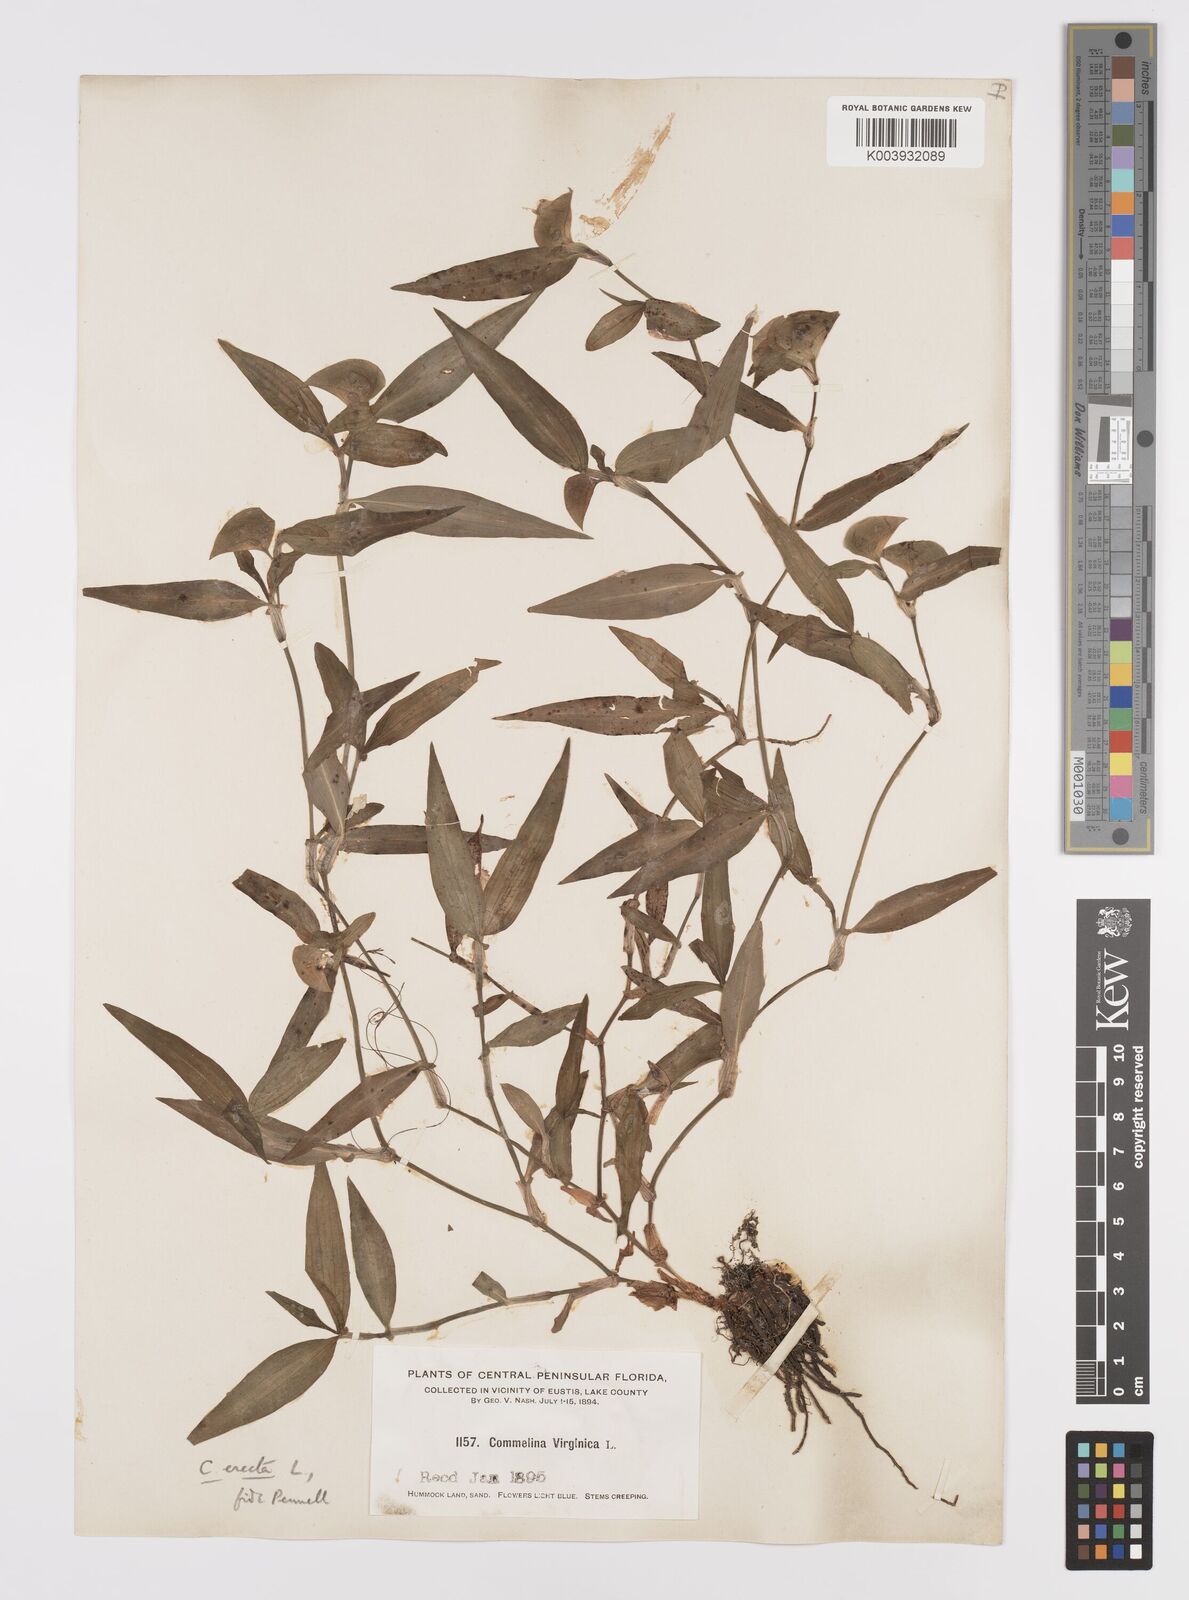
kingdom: Plantae
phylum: Tracheophyta
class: Liliopsida
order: Commelinales
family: Commelinaceae
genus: Commelina
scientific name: Commelina erecta
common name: Blousel blommetjie
